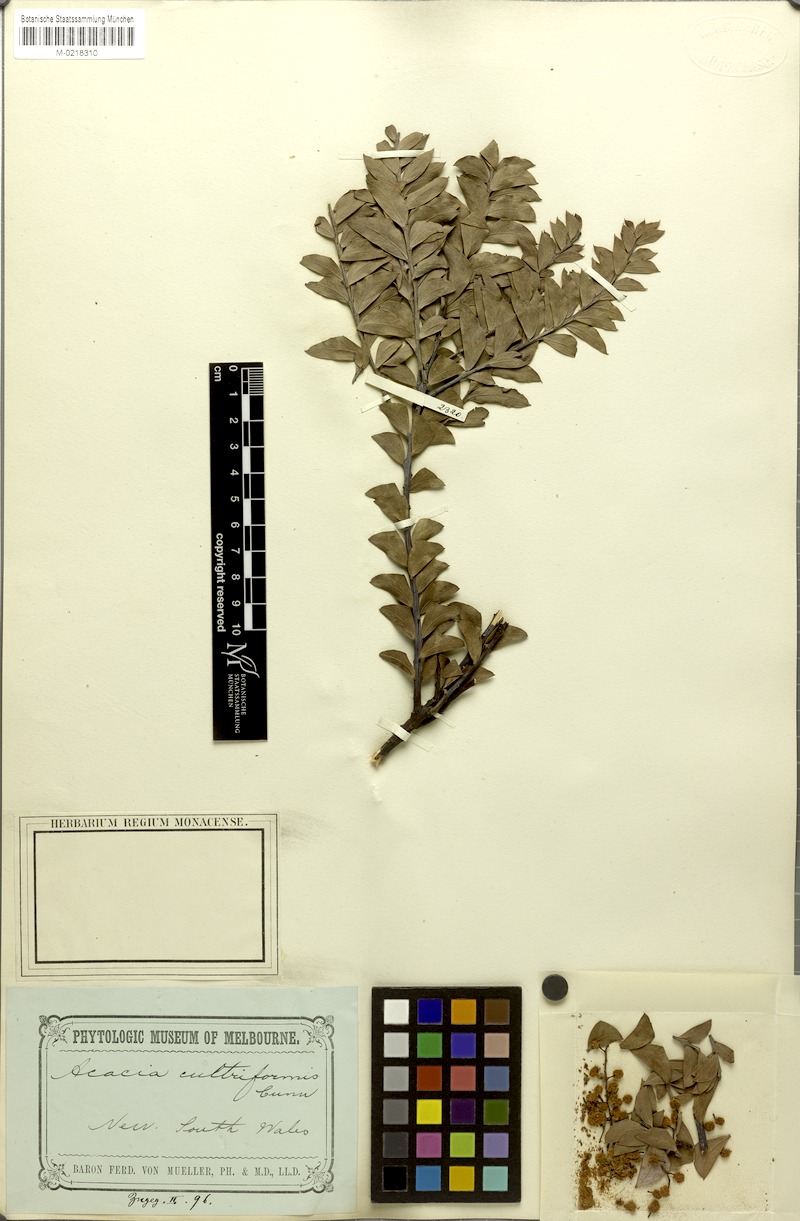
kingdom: Plantae
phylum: Tracheophyta
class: Magnoliopsida
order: Fabales
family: Fabaceae
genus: Acacia
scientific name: Acacia cultriformis
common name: Knife acacia
